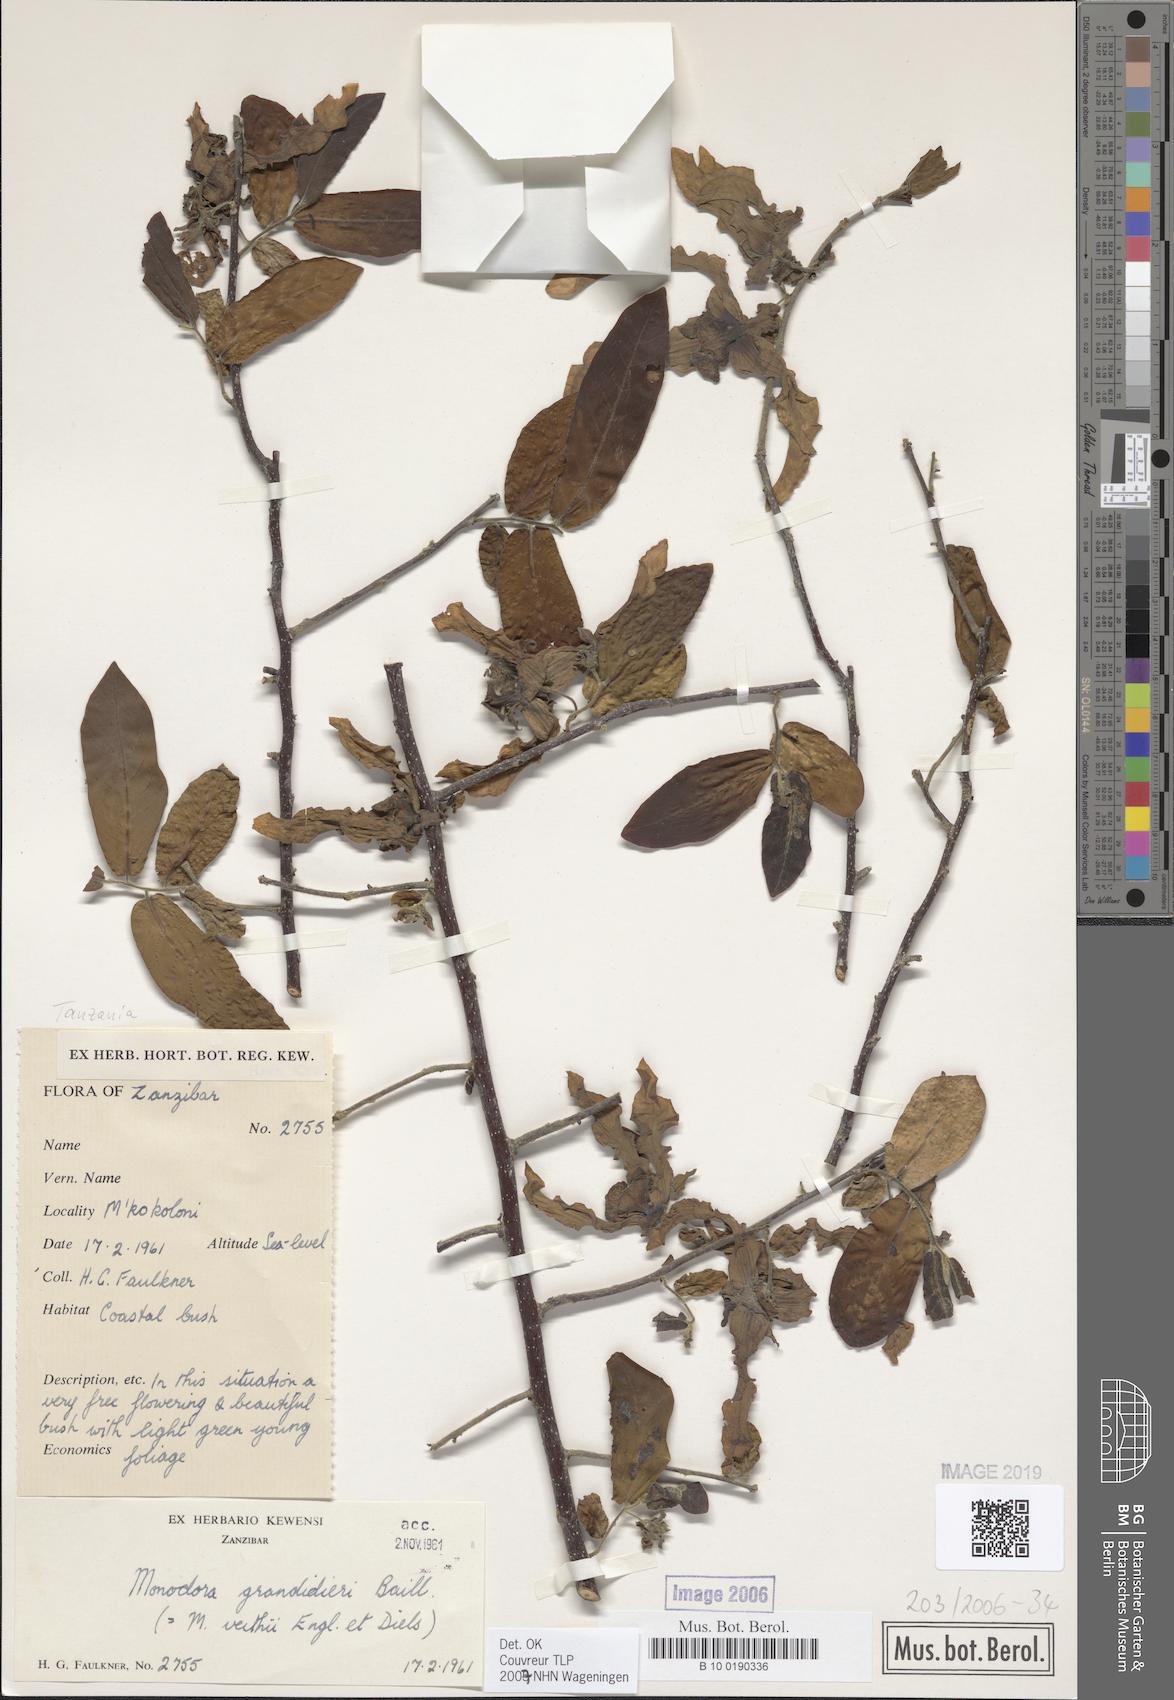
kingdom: Plantae
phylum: Tracheophyta
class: Magnoliopsida
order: Magnoliales
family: Annonaceae
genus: Monodora
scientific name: Monodora grandidieri
